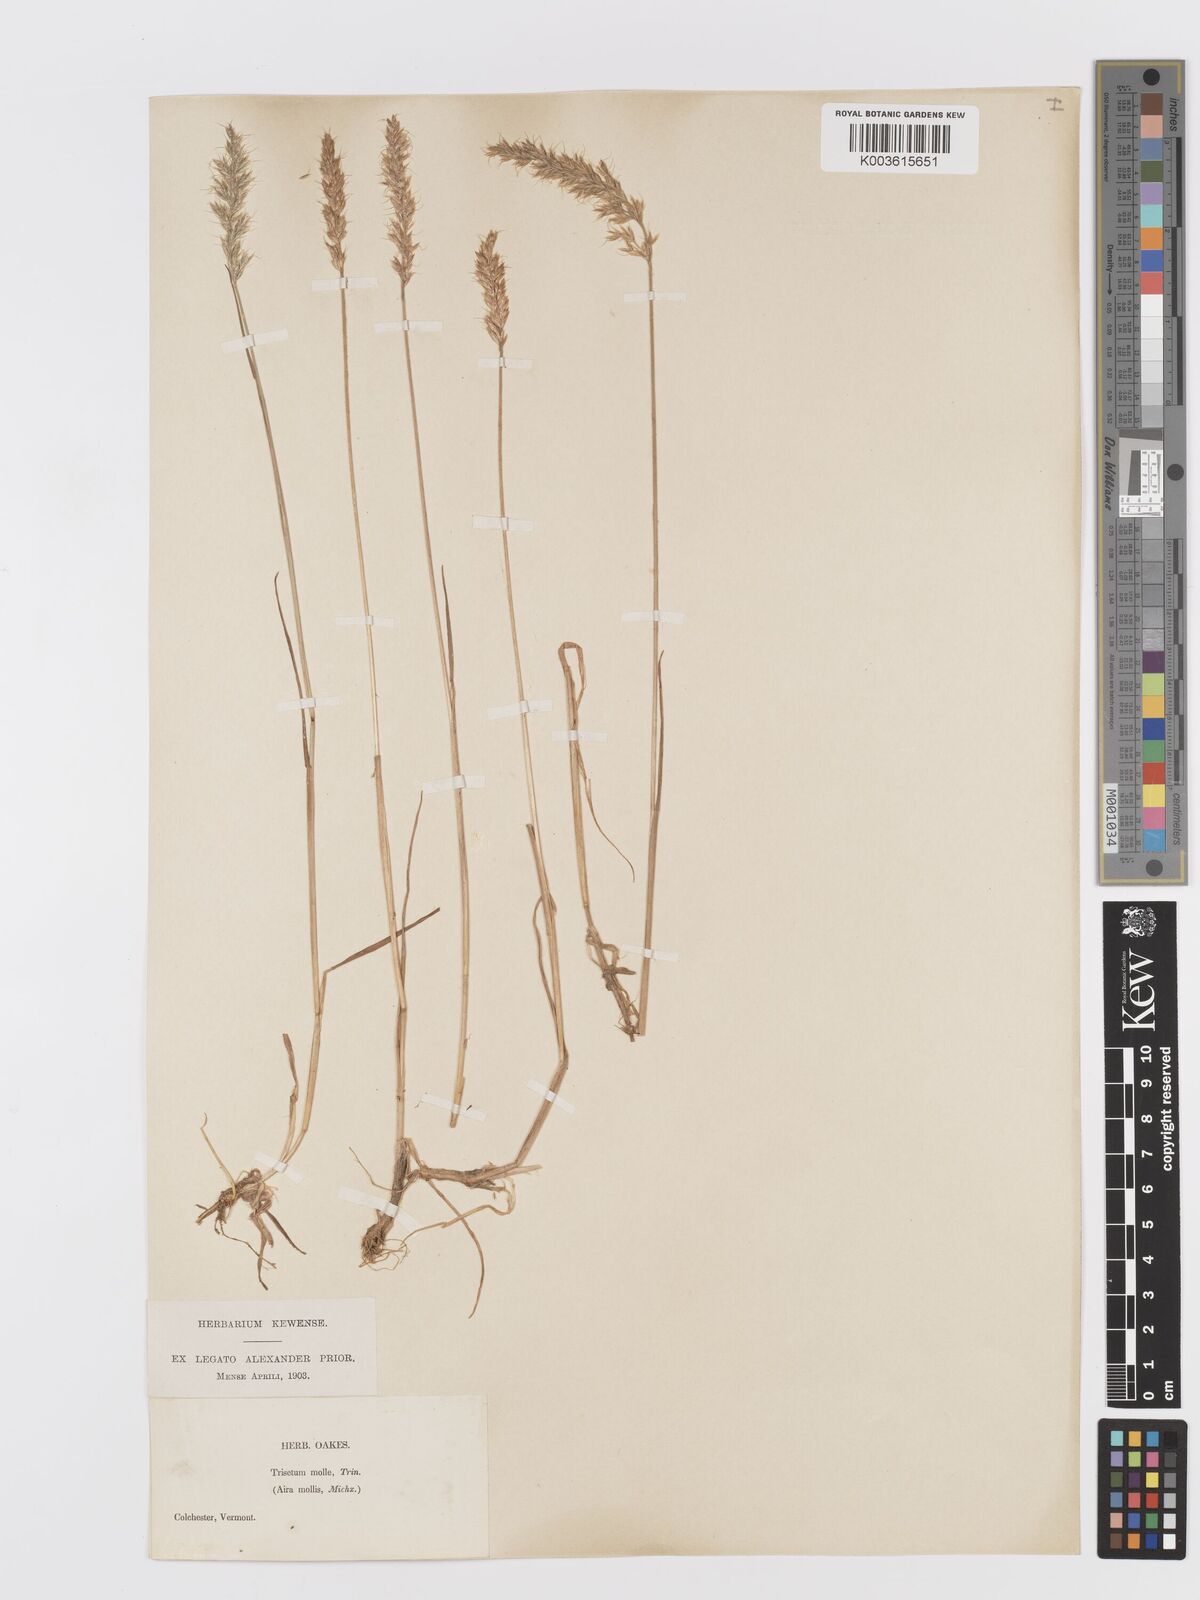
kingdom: Plantae
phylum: Tracheophyta
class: Liliopsida
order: Poales
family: Poaceae
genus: Koeleria
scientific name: Koeleria spicata
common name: Mountain trisetum
